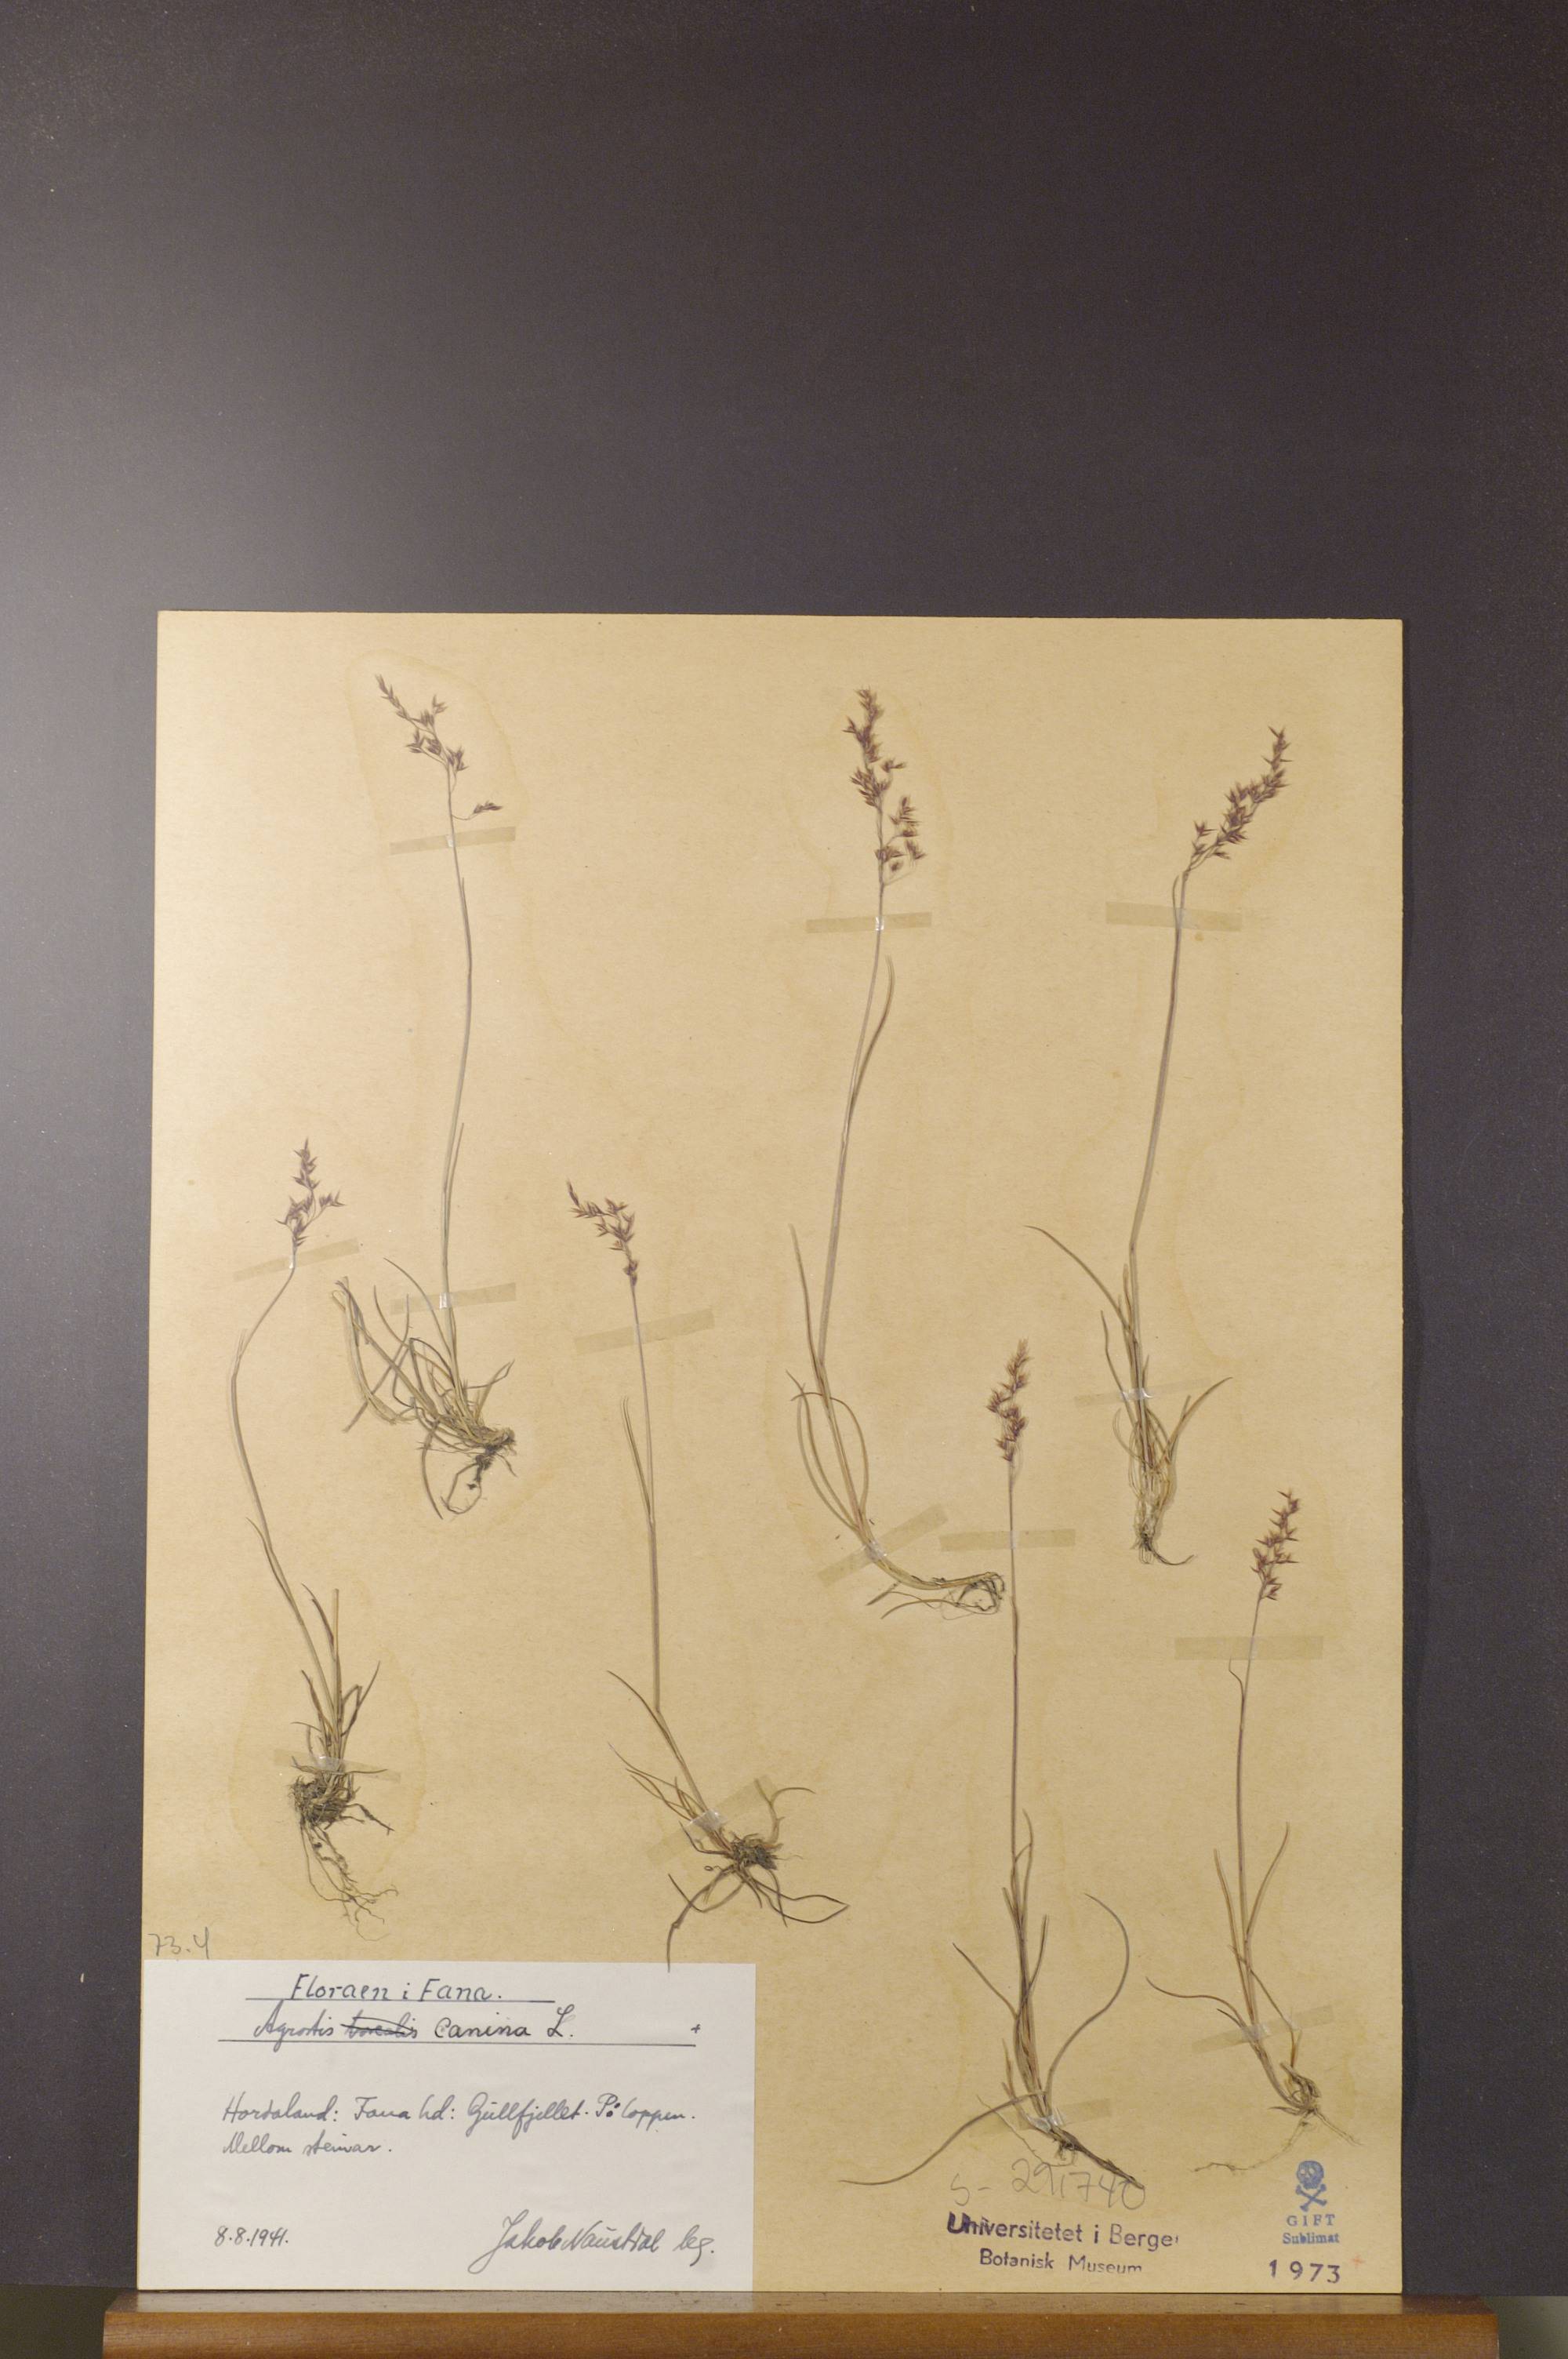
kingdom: Plantae
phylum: Tracheophyta
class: Liliopsida
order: Poales
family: Poaceae
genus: Agrostis
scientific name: Agrostis canina
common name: Velvet bent
